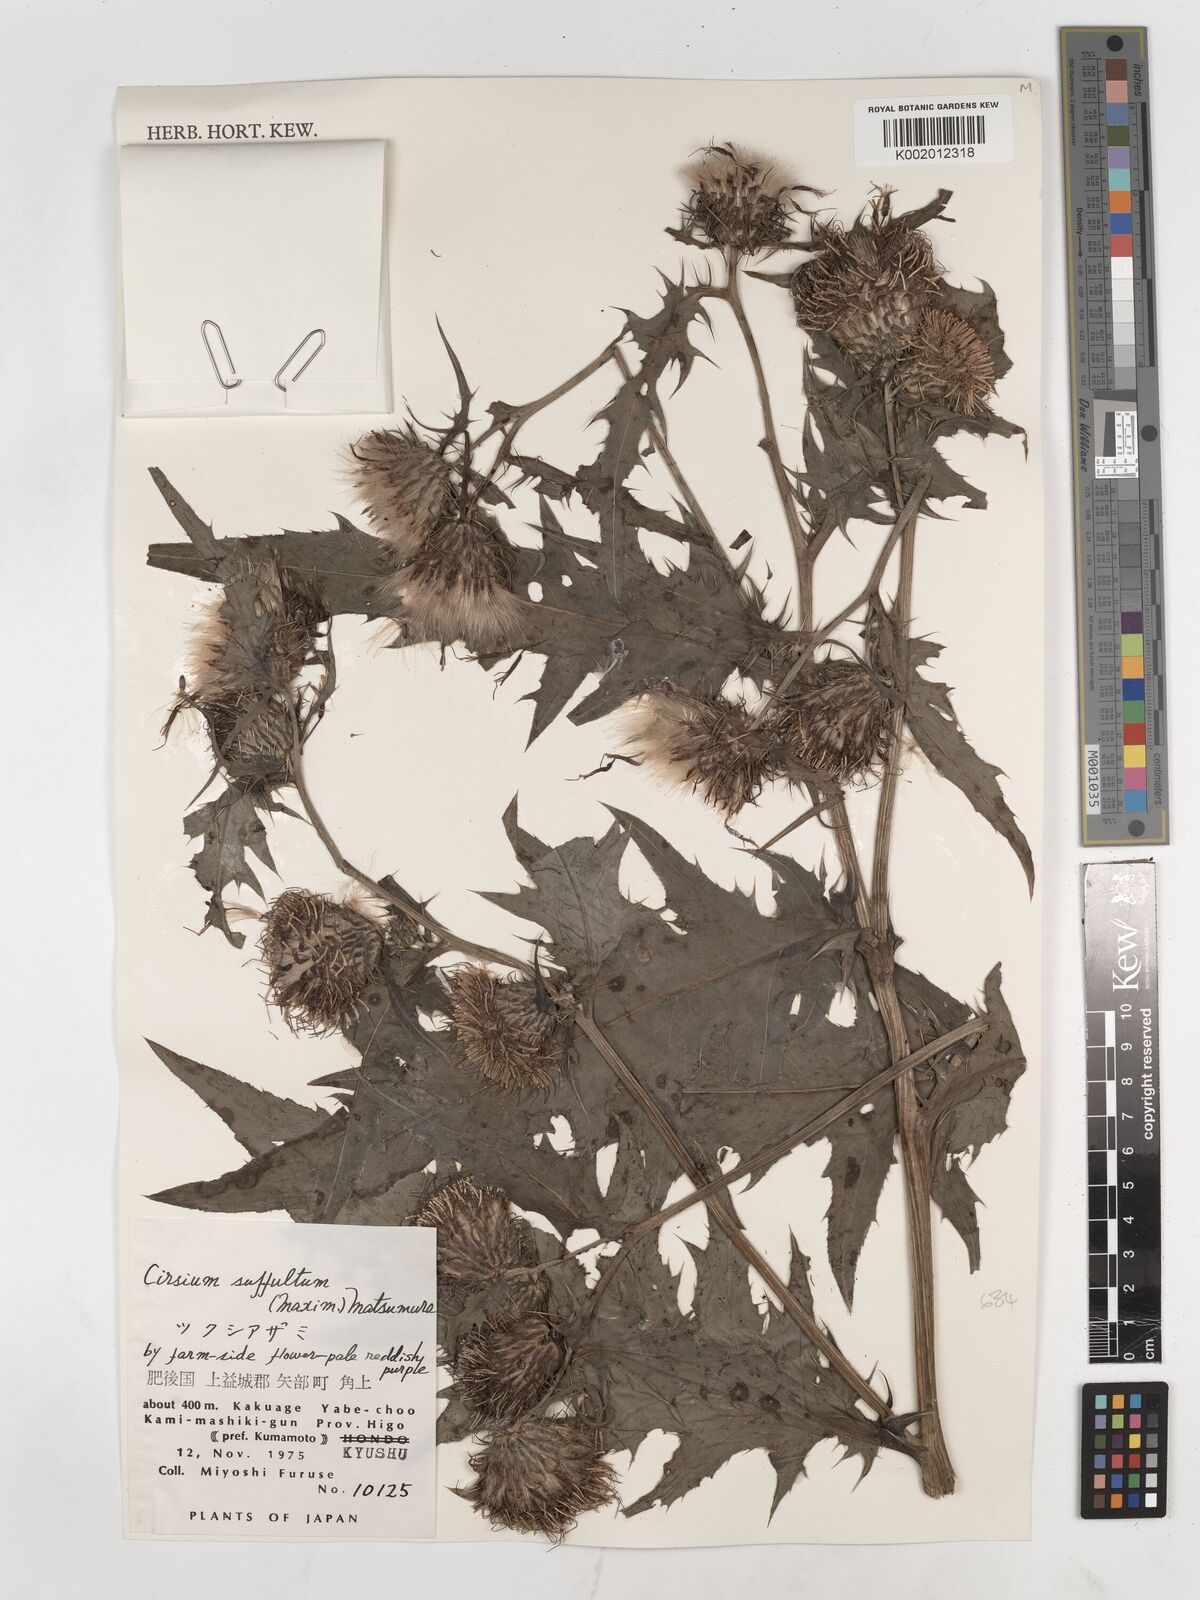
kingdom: Plantae
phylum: Tracheophyta
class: Magnoliopsida
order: Asterales
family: Asteraceae
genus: Cirsium
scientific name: Cirsium suffultum
